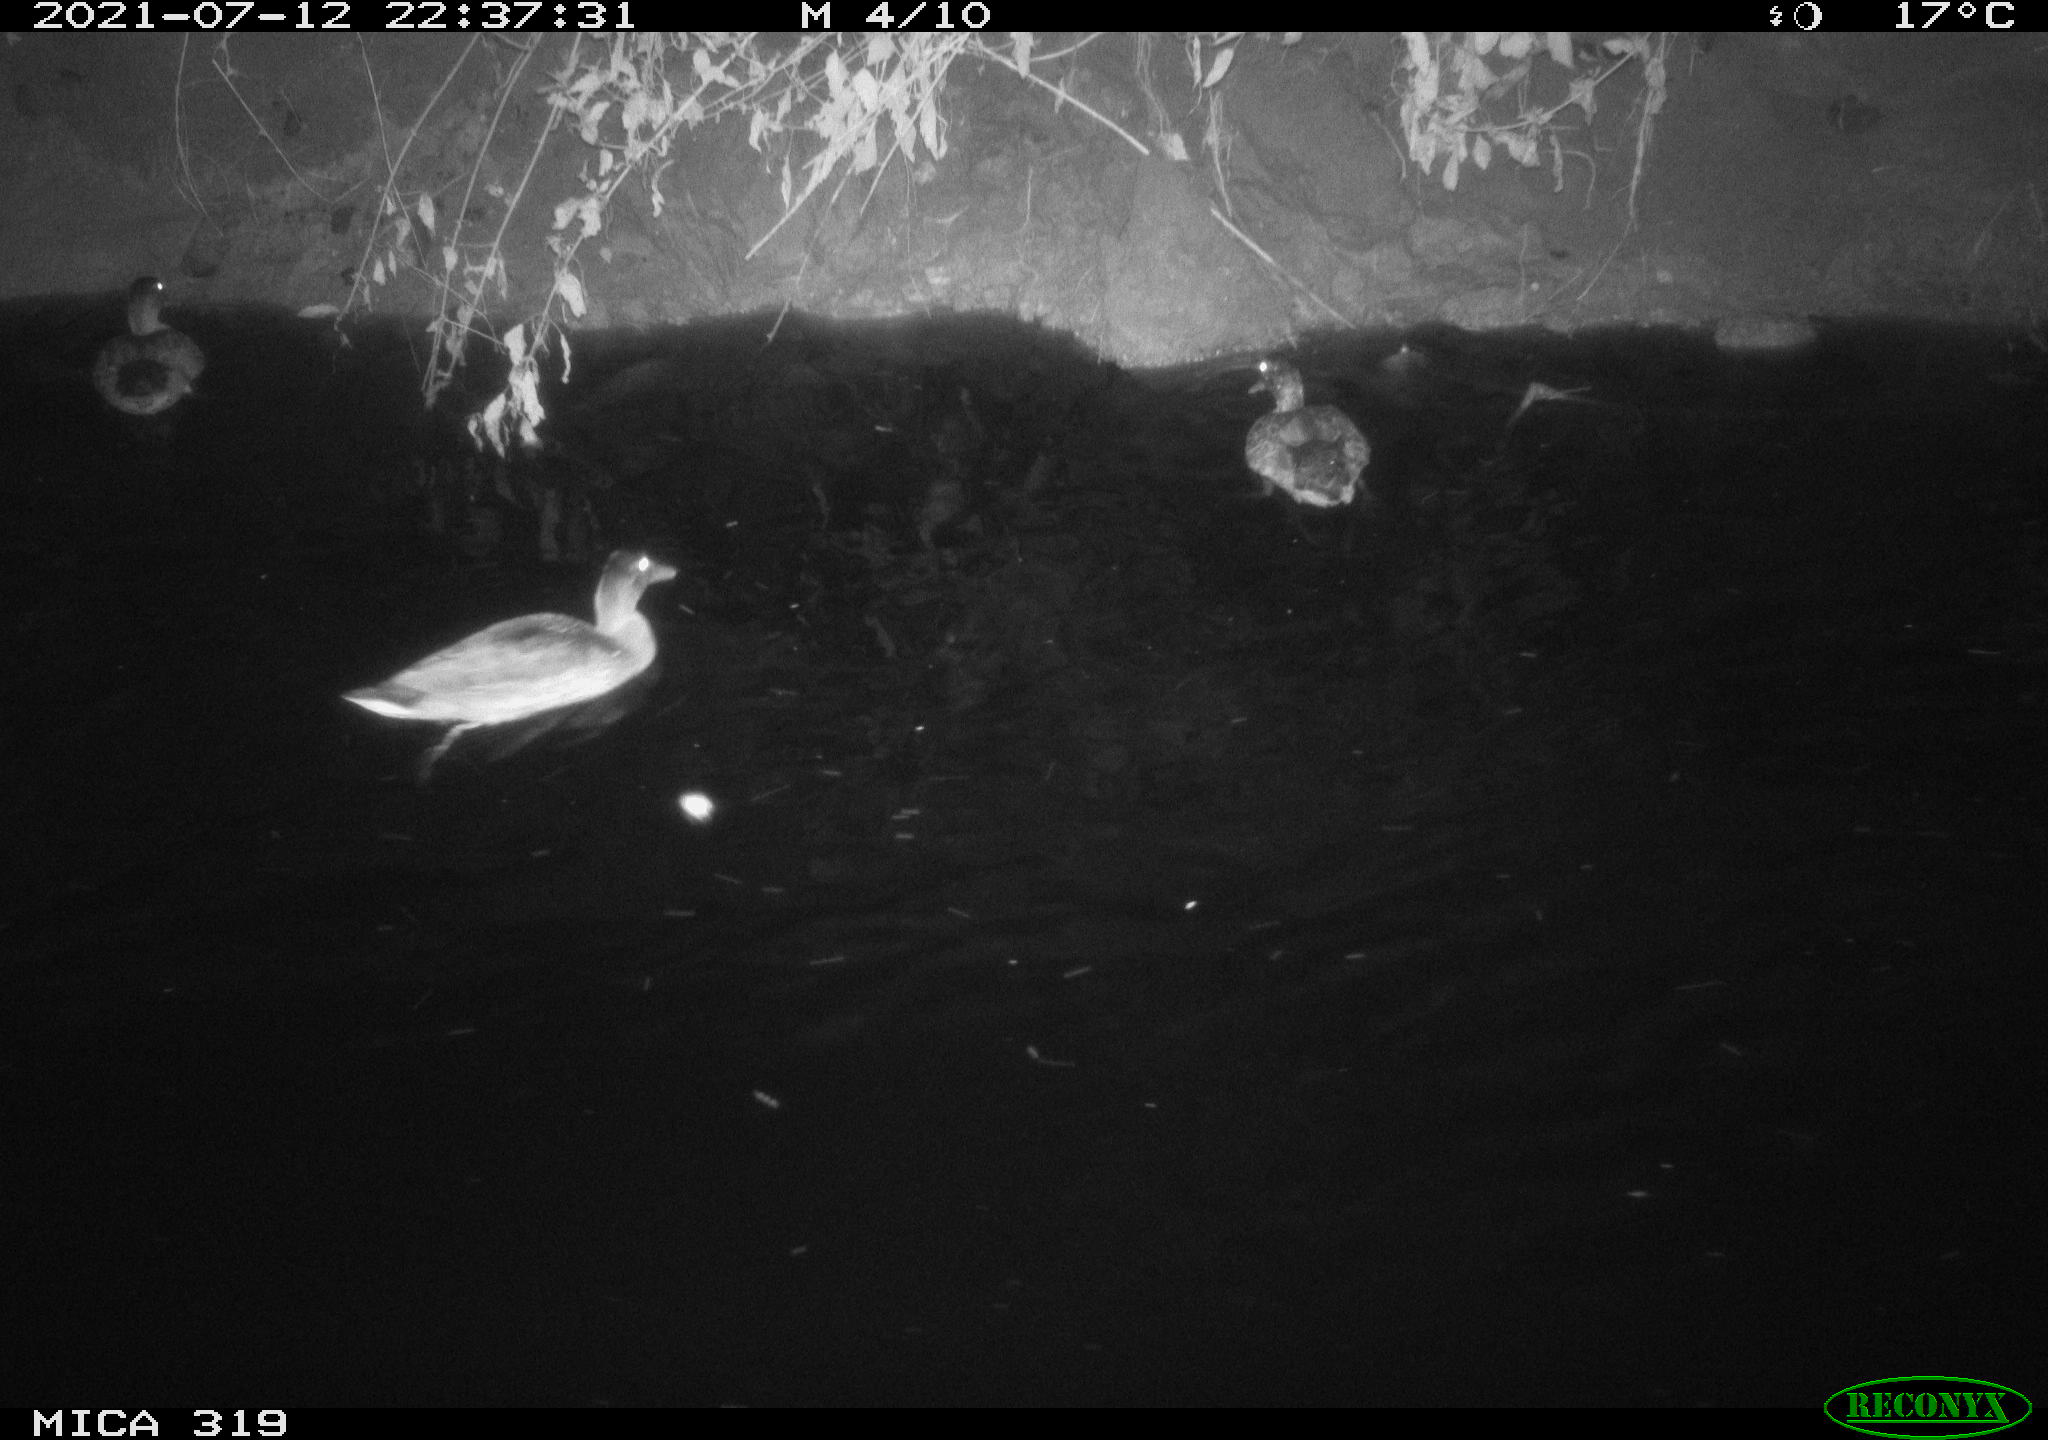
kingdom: Animalia
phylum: Chordata
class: Aves
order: Anseriformes
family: Anatidae
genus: Anas
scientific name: Anas platyrhynchos
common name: Mallard
